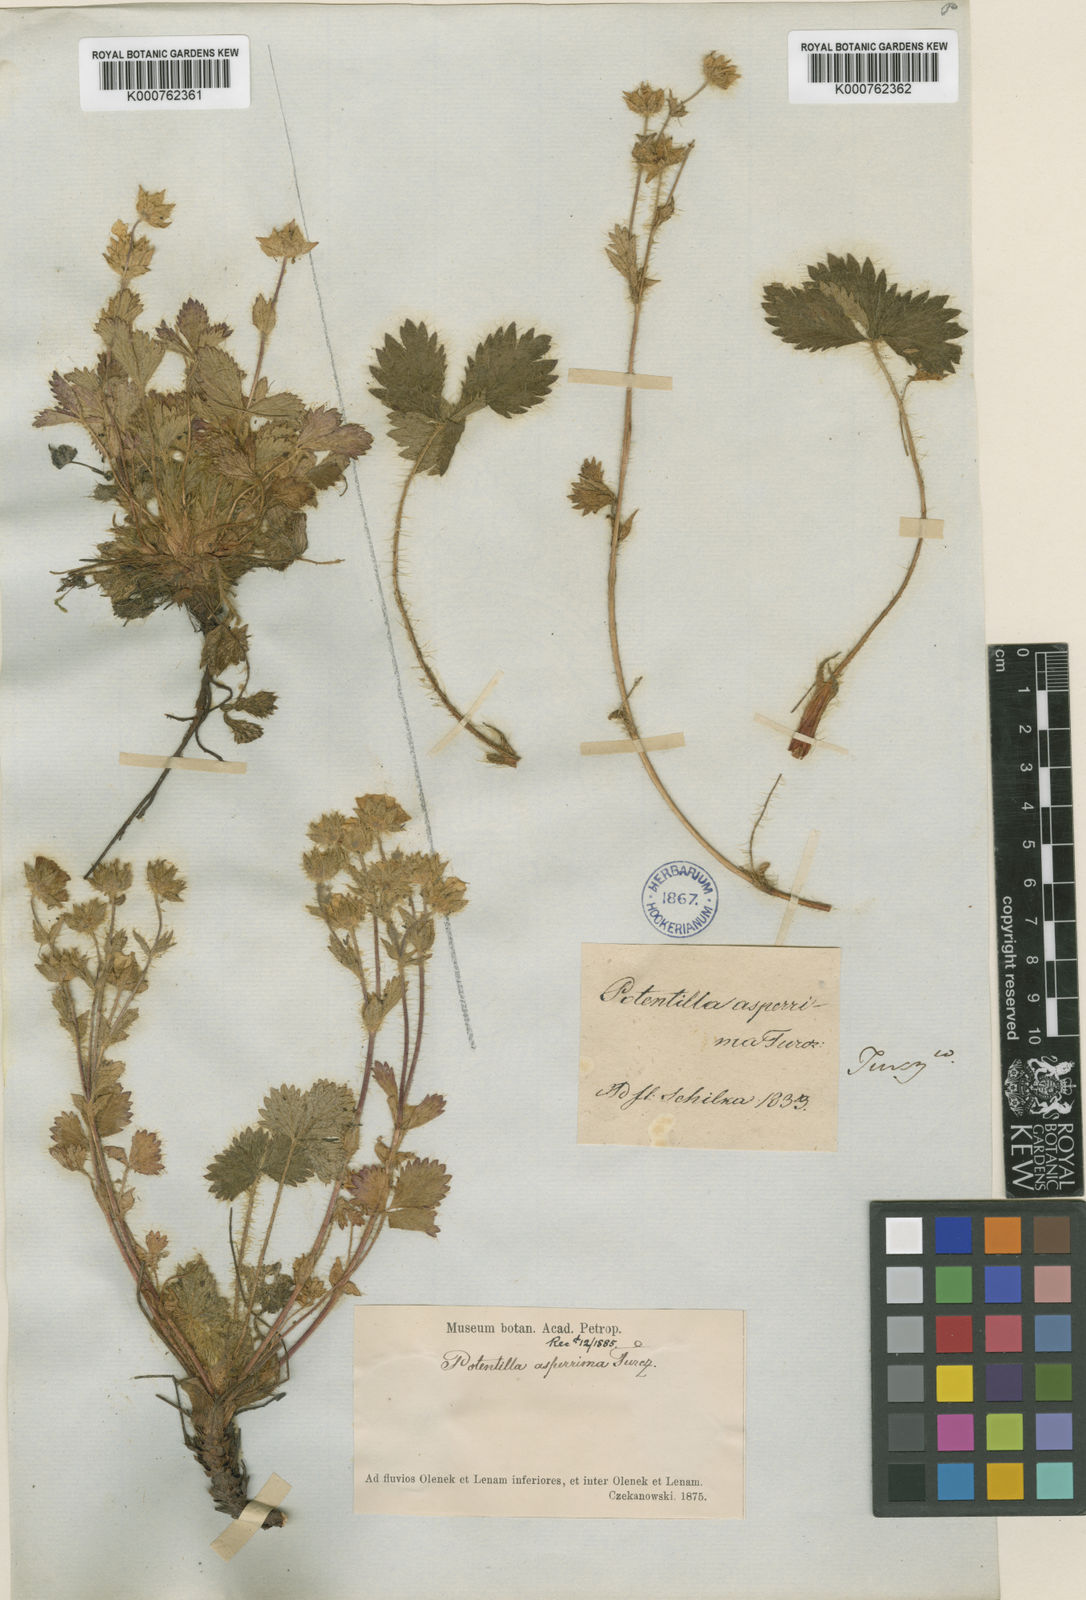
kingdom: Plantae
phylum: Tracheophyta
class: Magnoliopsida
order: Rosales
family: Rosaceae
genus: Potentilla
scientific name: Potentilla asperrima
